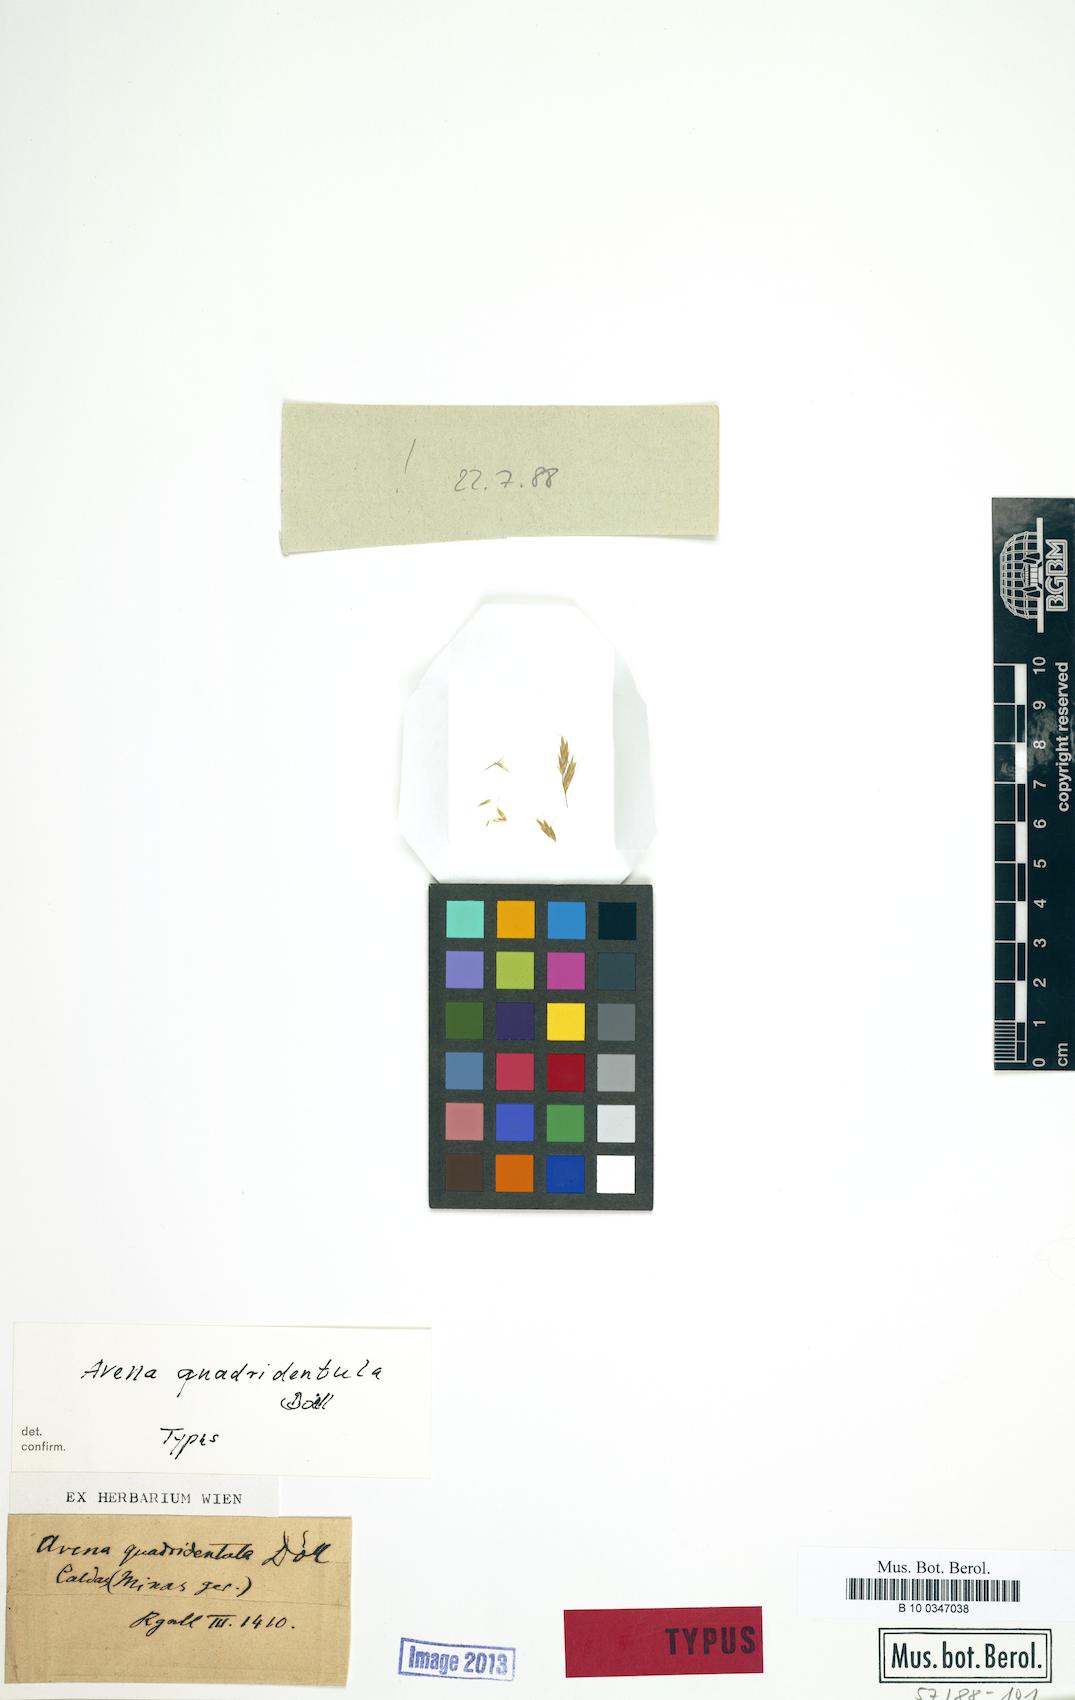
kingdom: Plantae
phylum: Tracheophyta
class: Liliopsida
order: Poales
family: Poaceae
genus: Amphibromus
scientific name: Amphibromus quadridentulus
